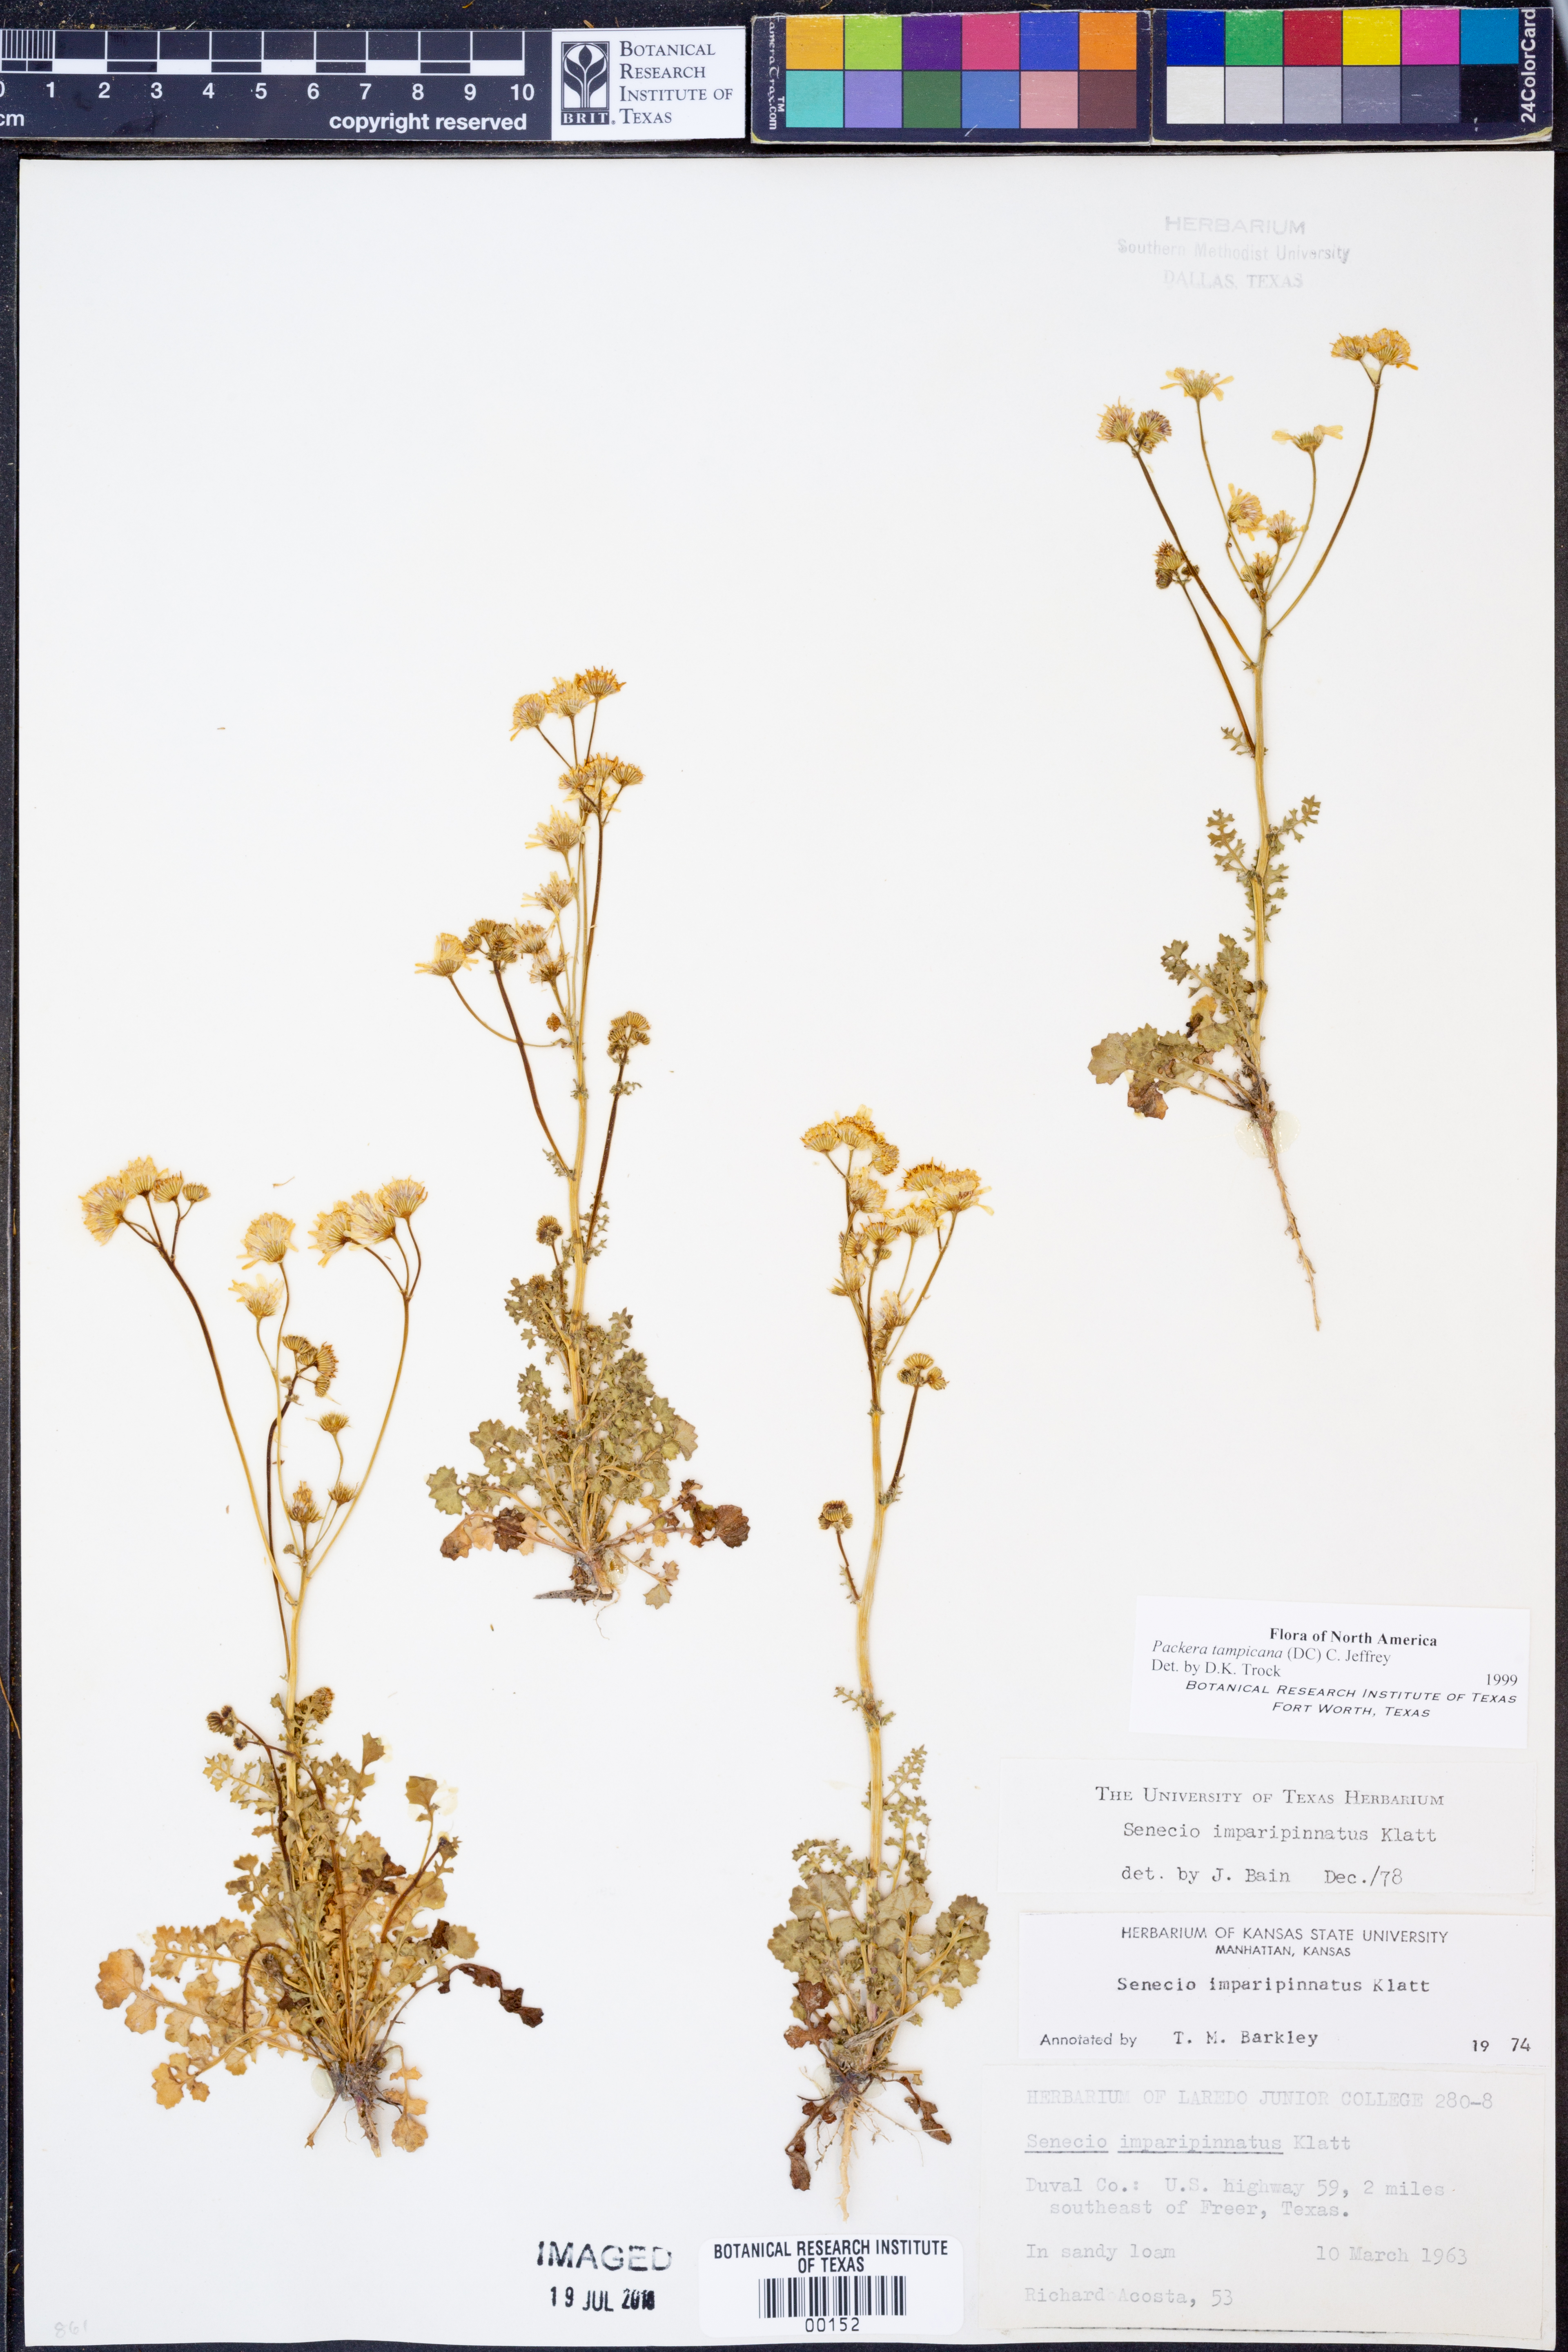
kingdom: Plantae
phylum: Tracheophyta
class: Magnoliopsida
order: Asterales
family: Asteraceae
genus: Packera
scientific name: Packera tampicana
